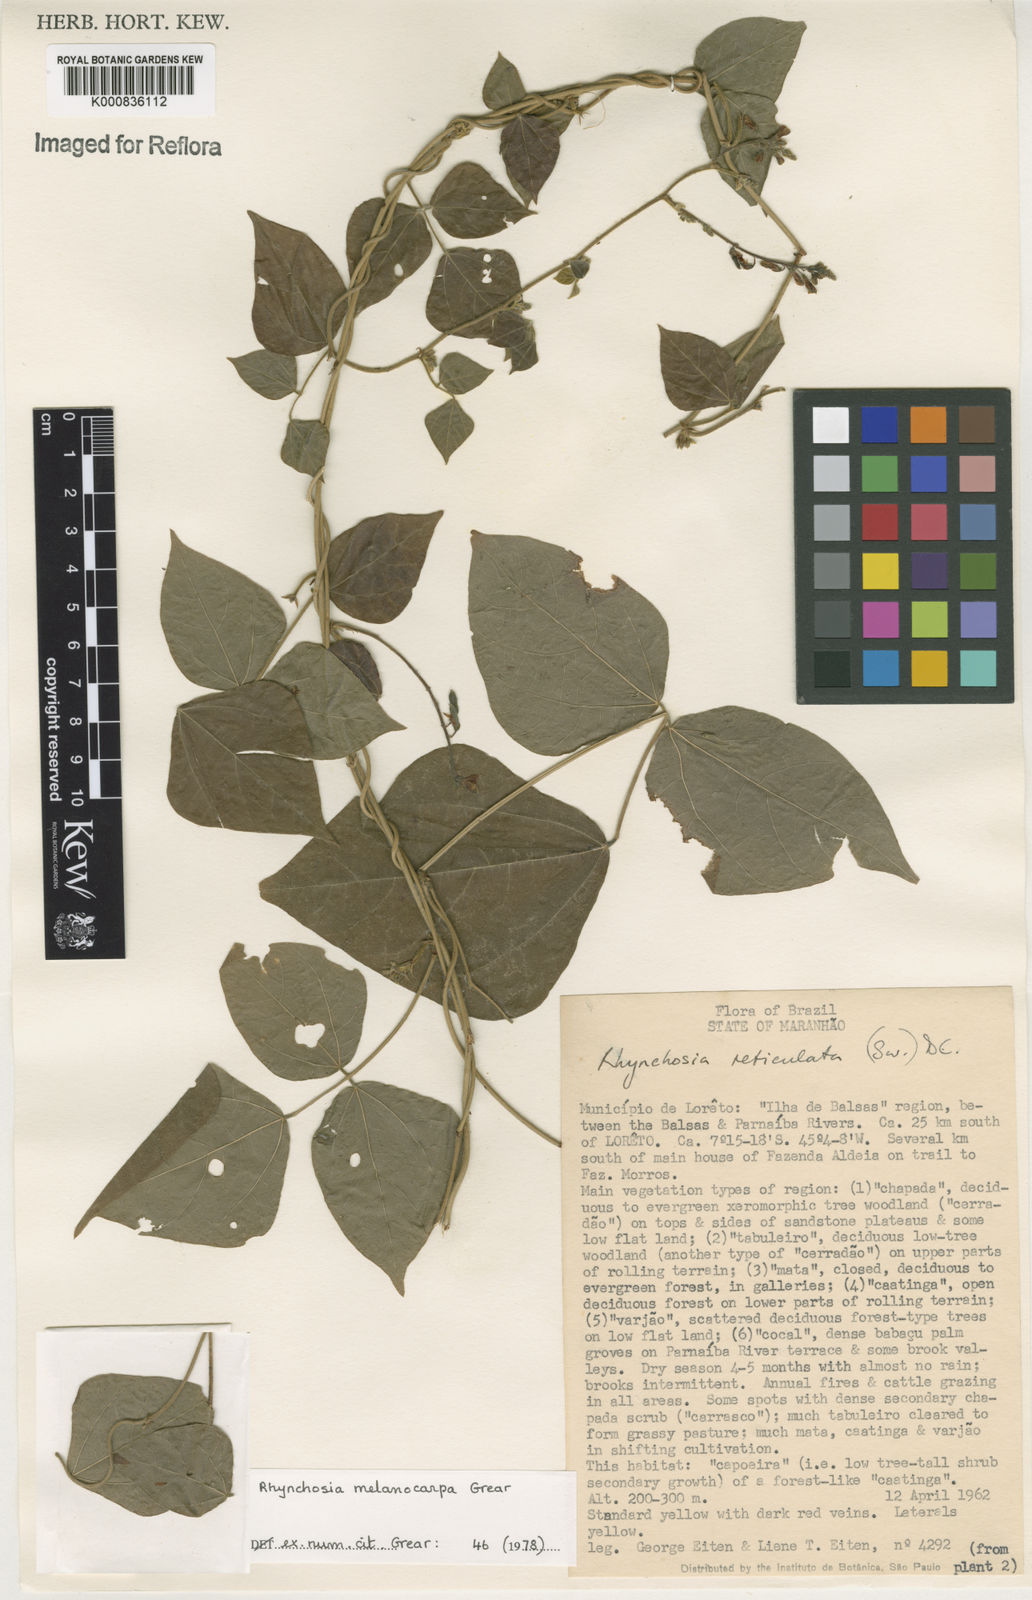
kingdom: Plantae
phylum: Tracheophyta
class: Magnoliopsida
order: Fabales
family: Fabaceae
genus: Rhynchosia
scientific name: Rhynchosia melanocarpa
